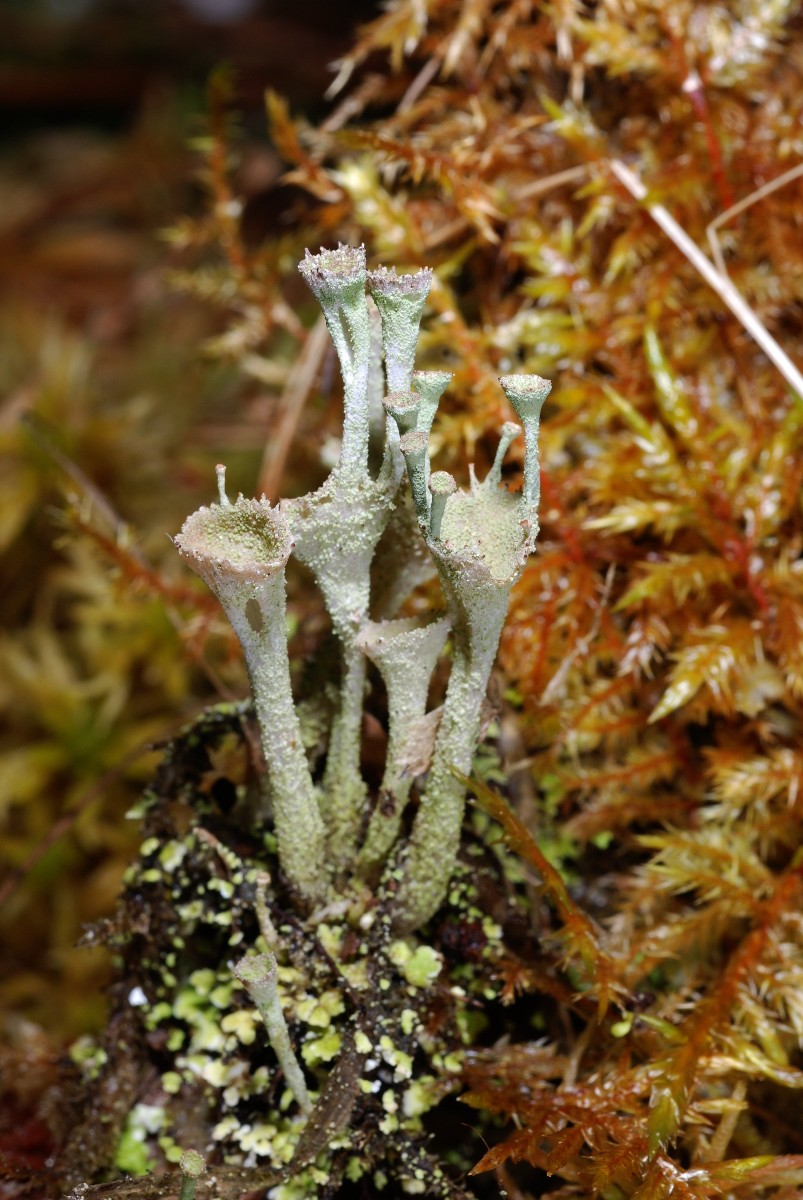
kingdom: Fungi
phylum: Ascomycota
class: Lecanoromycetes
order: Lecanorales
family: Cladoniaceae
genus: Cladonia
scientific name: Cladonia
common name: brungrøn bægerlav
